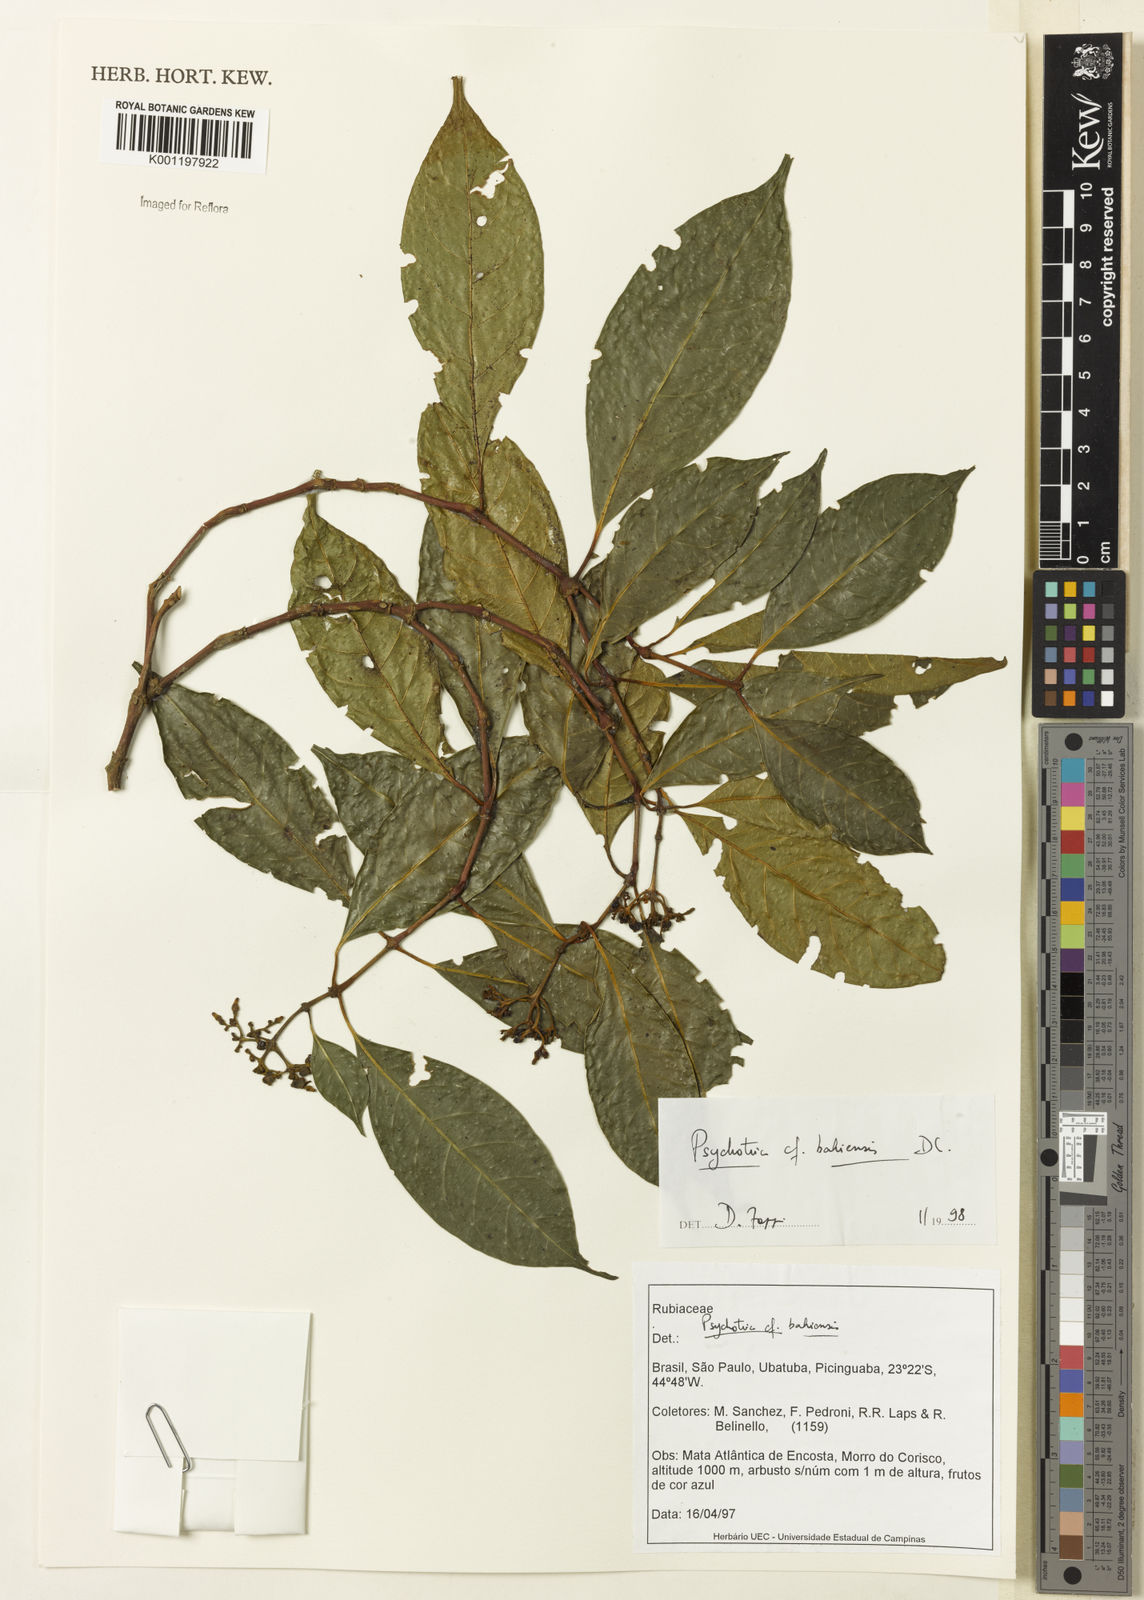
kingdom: Plantae
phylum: Tracheophyta
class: Magnoliopsida
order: Gentianales
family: Rubiaceae
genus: Psychotria
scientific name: Psychotria bahiensis
